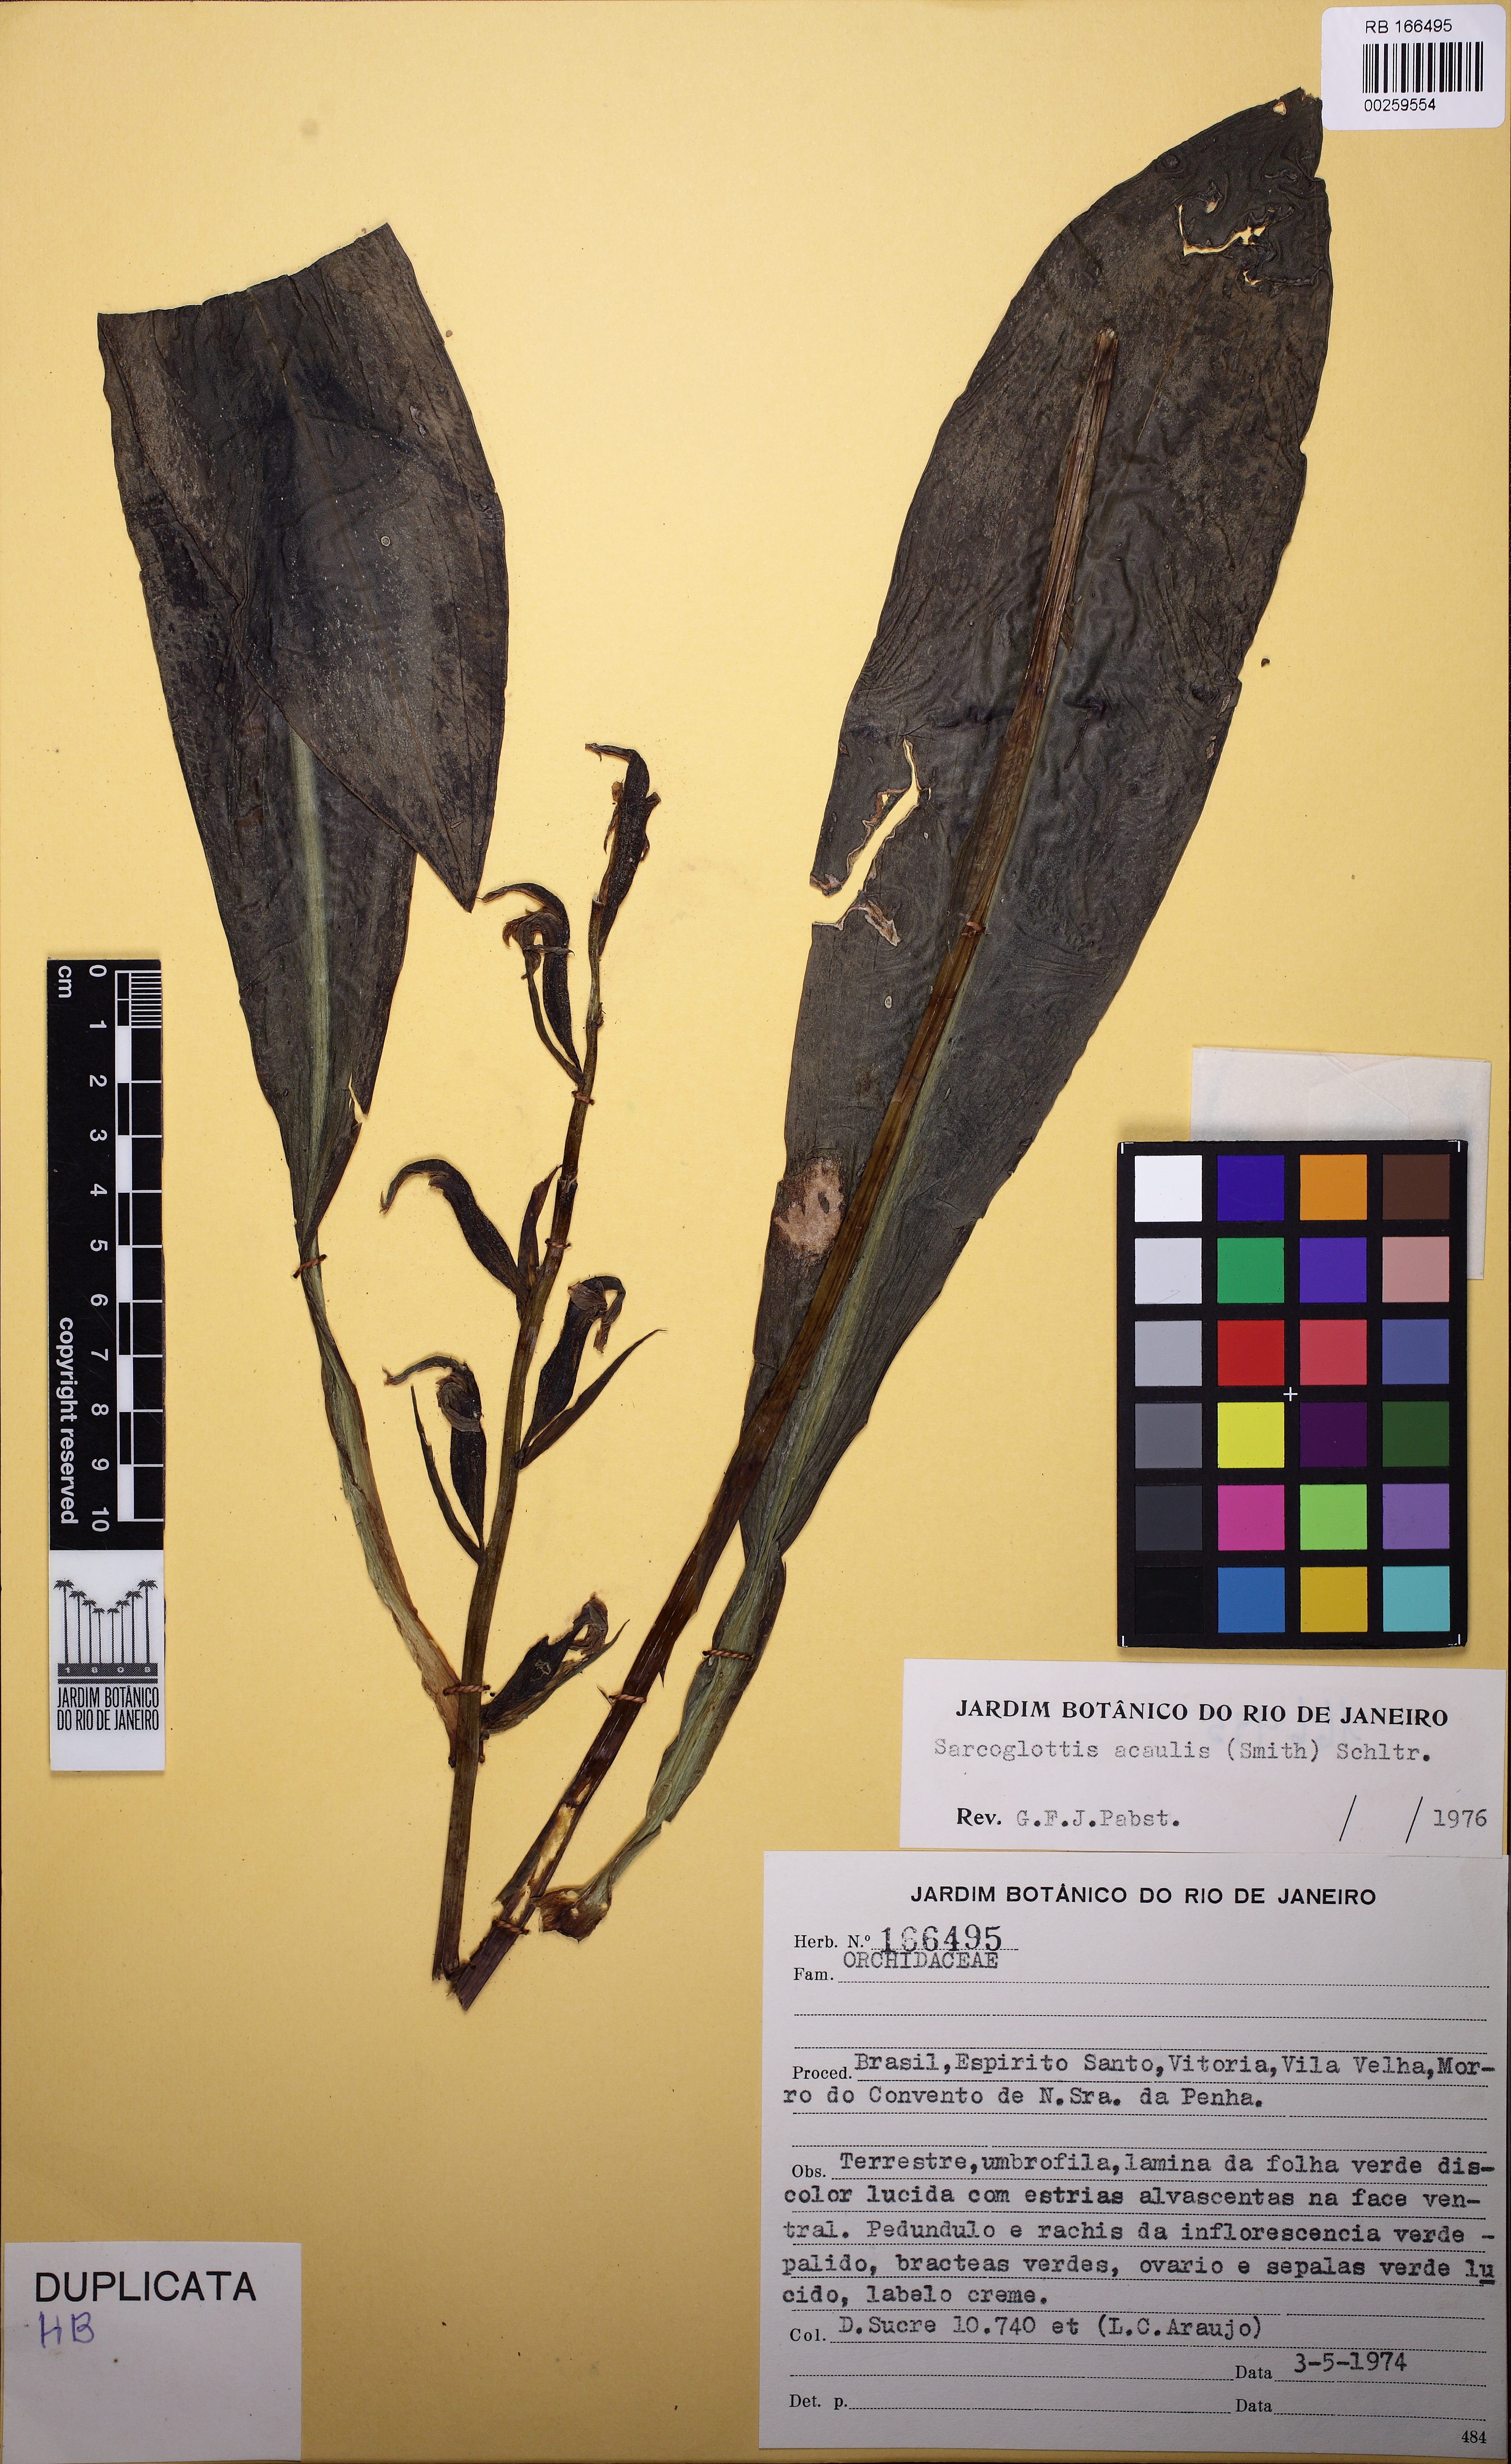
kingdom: Plantae
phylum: Tracheophyta
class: Liliopsida
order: Asparagales
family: Orchidaceae
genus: Sarcoglottis
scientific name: Sarcoglottis acaulis
